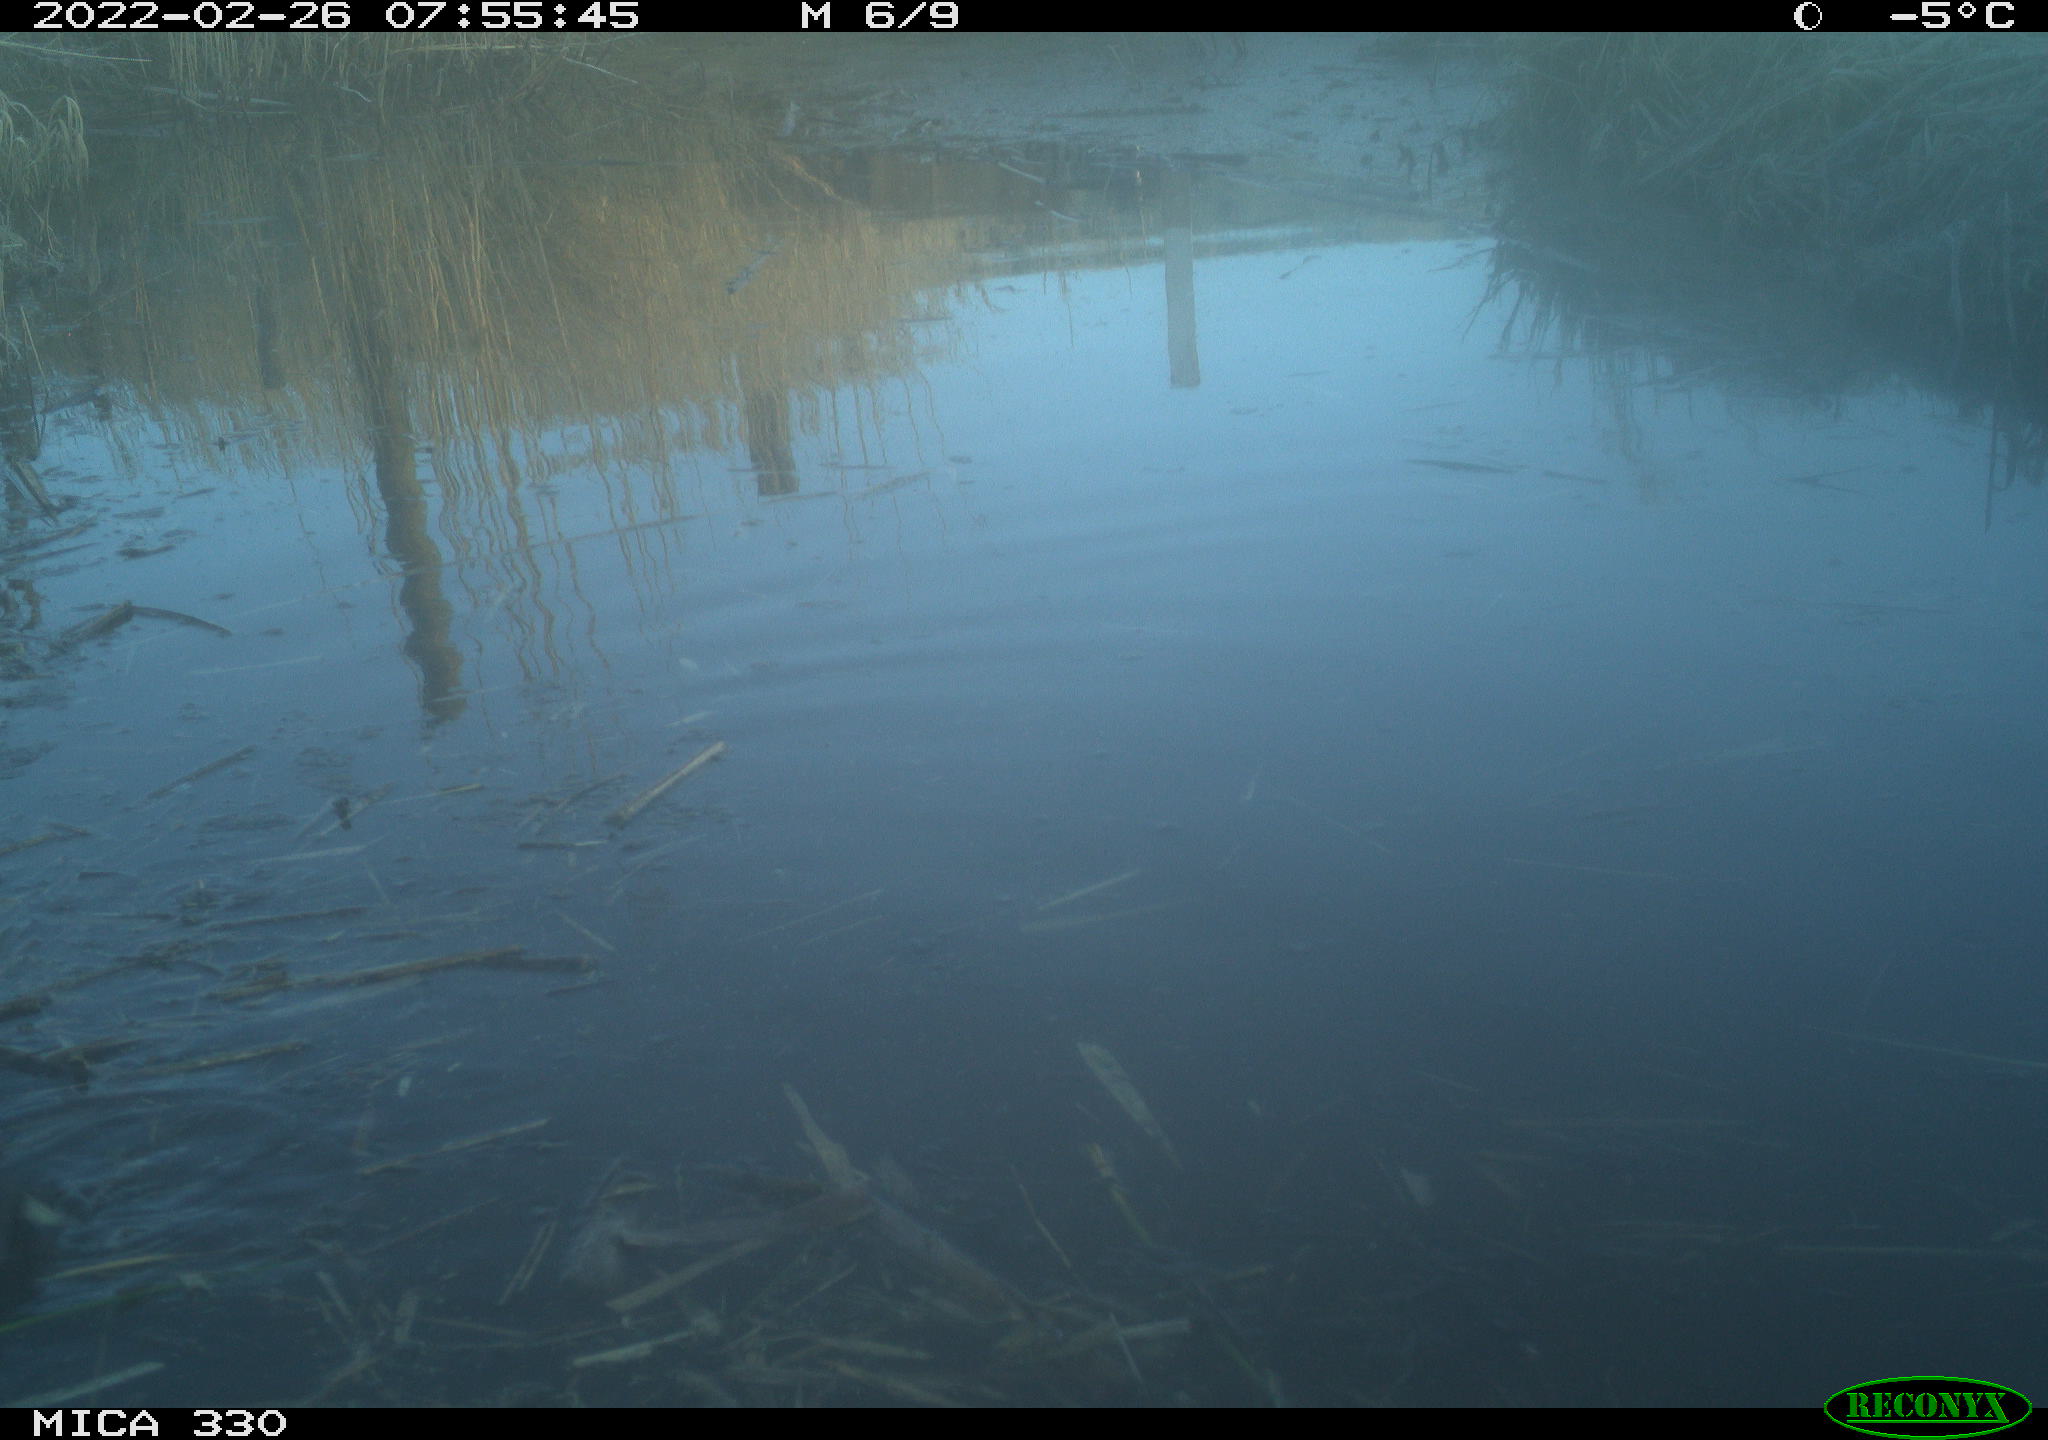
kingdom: Animalia
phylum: Chordata
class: Aves
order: Gruiformes
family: Rallidae
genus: Fulica
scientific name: Fulica atra
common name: Eurasian coot
